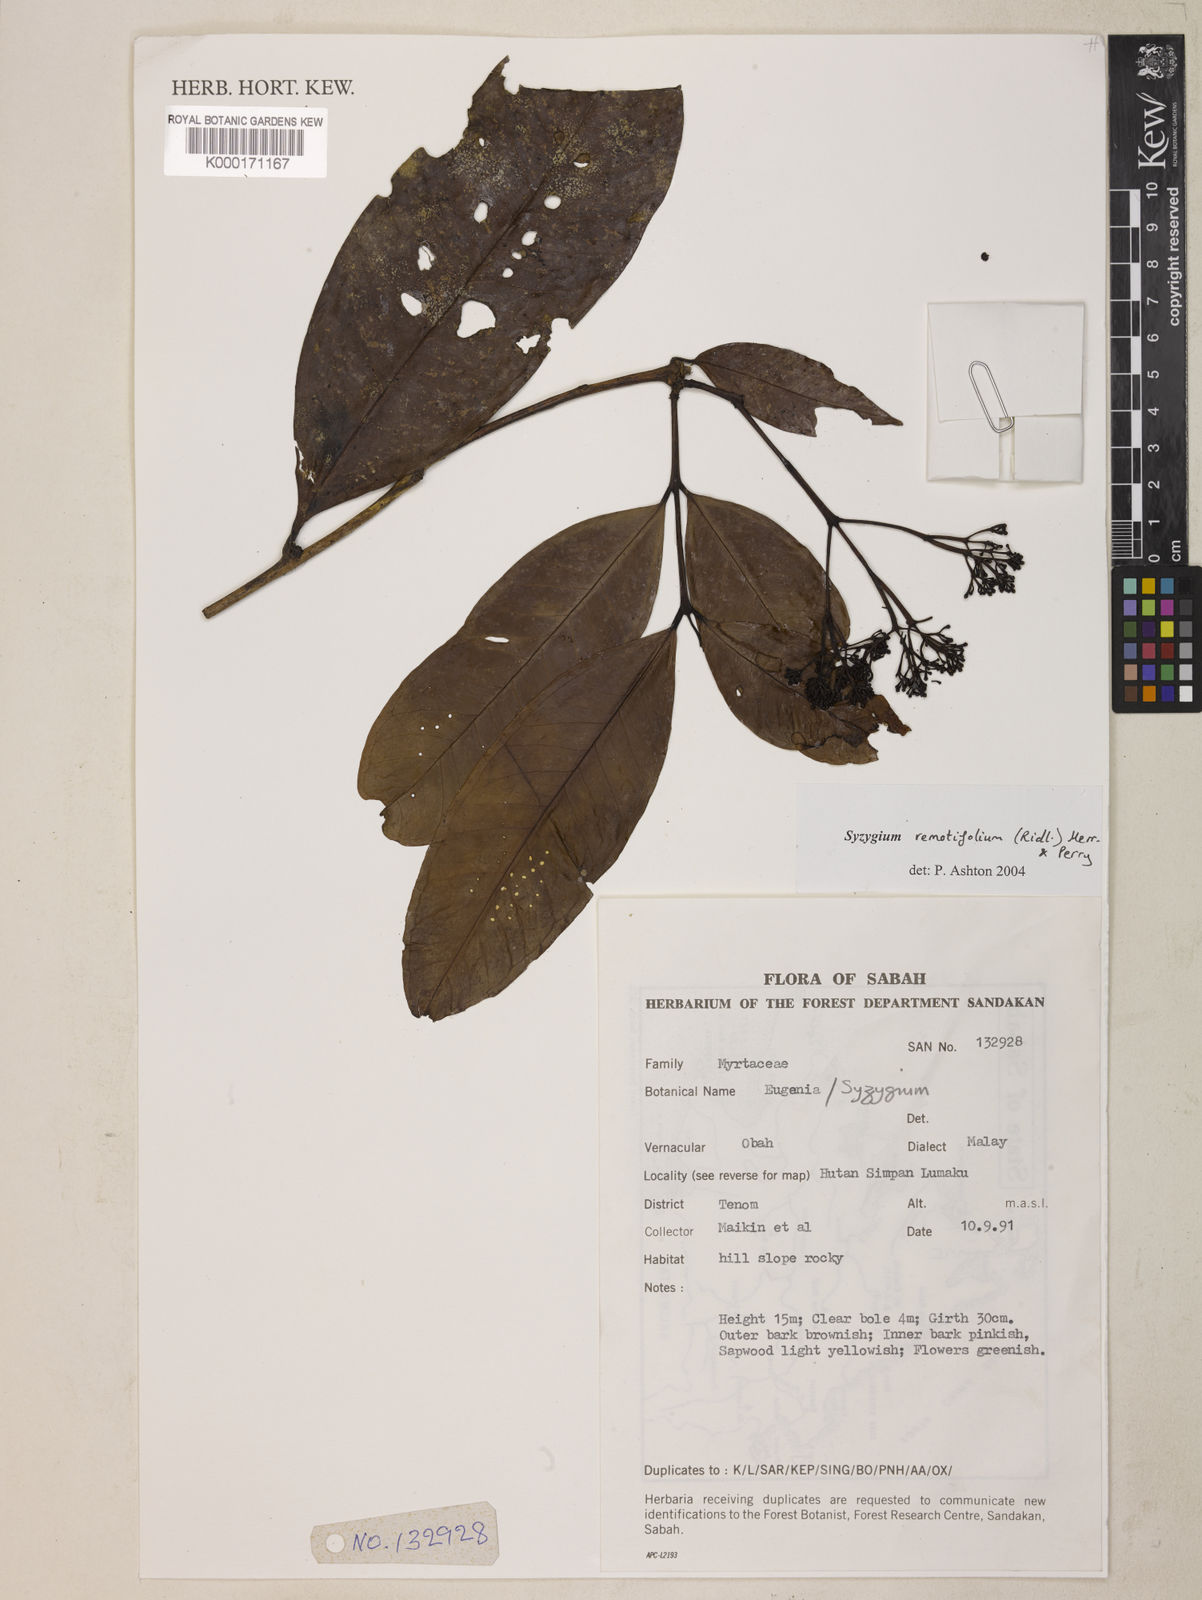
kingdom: Plantae
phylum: Tracheophyta
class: Magnoliopsida
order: Myrtales
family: Myrtaceae
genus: Syzygium
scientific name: Syzygium remotifolium
